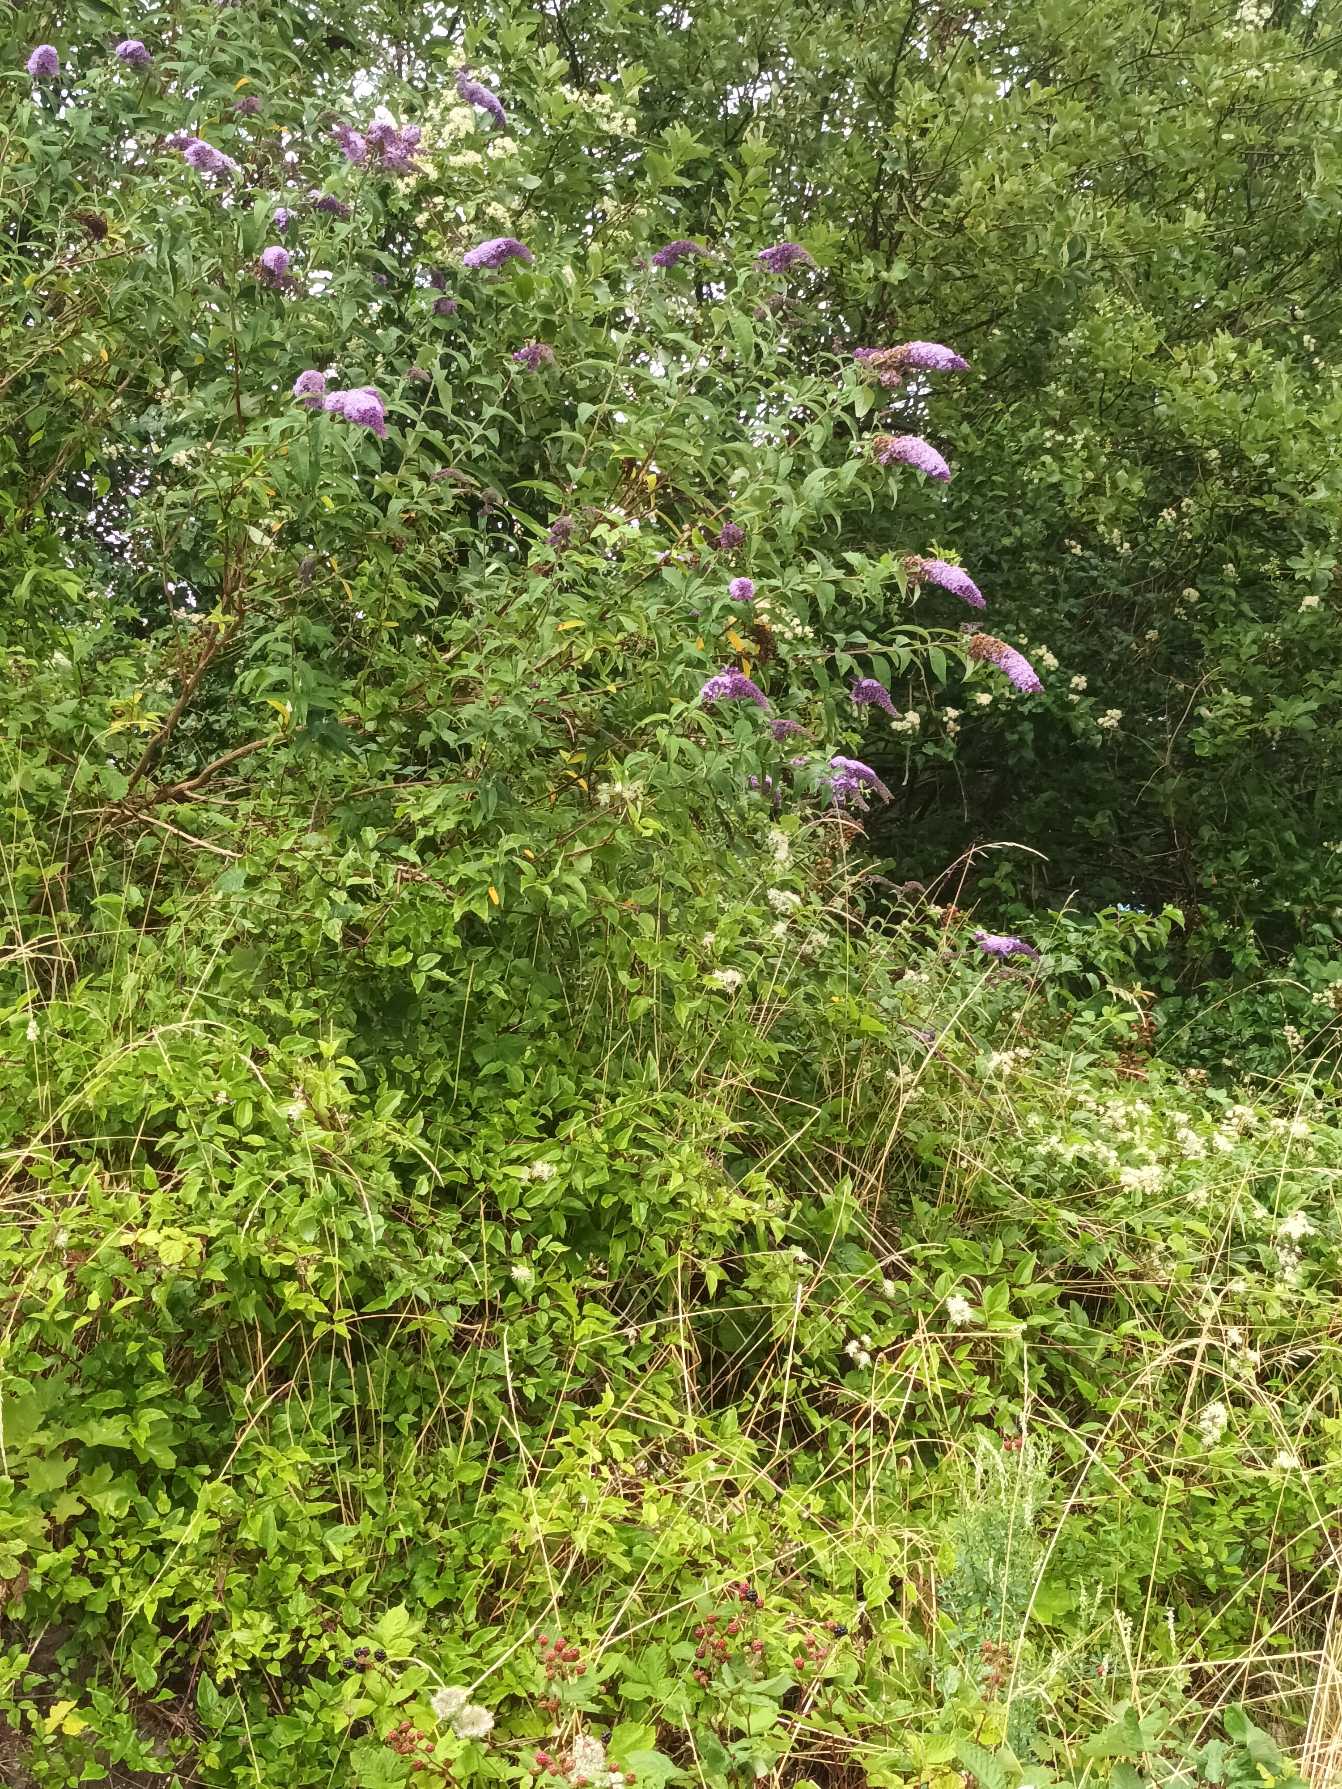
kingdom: Plantae
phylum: Tracheophyta
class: Magnoliopsida
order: Lamiales
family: Scrophulariaceae
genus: Buddleja
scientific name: Buddleja davidii
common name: Sommerfuglebusk
